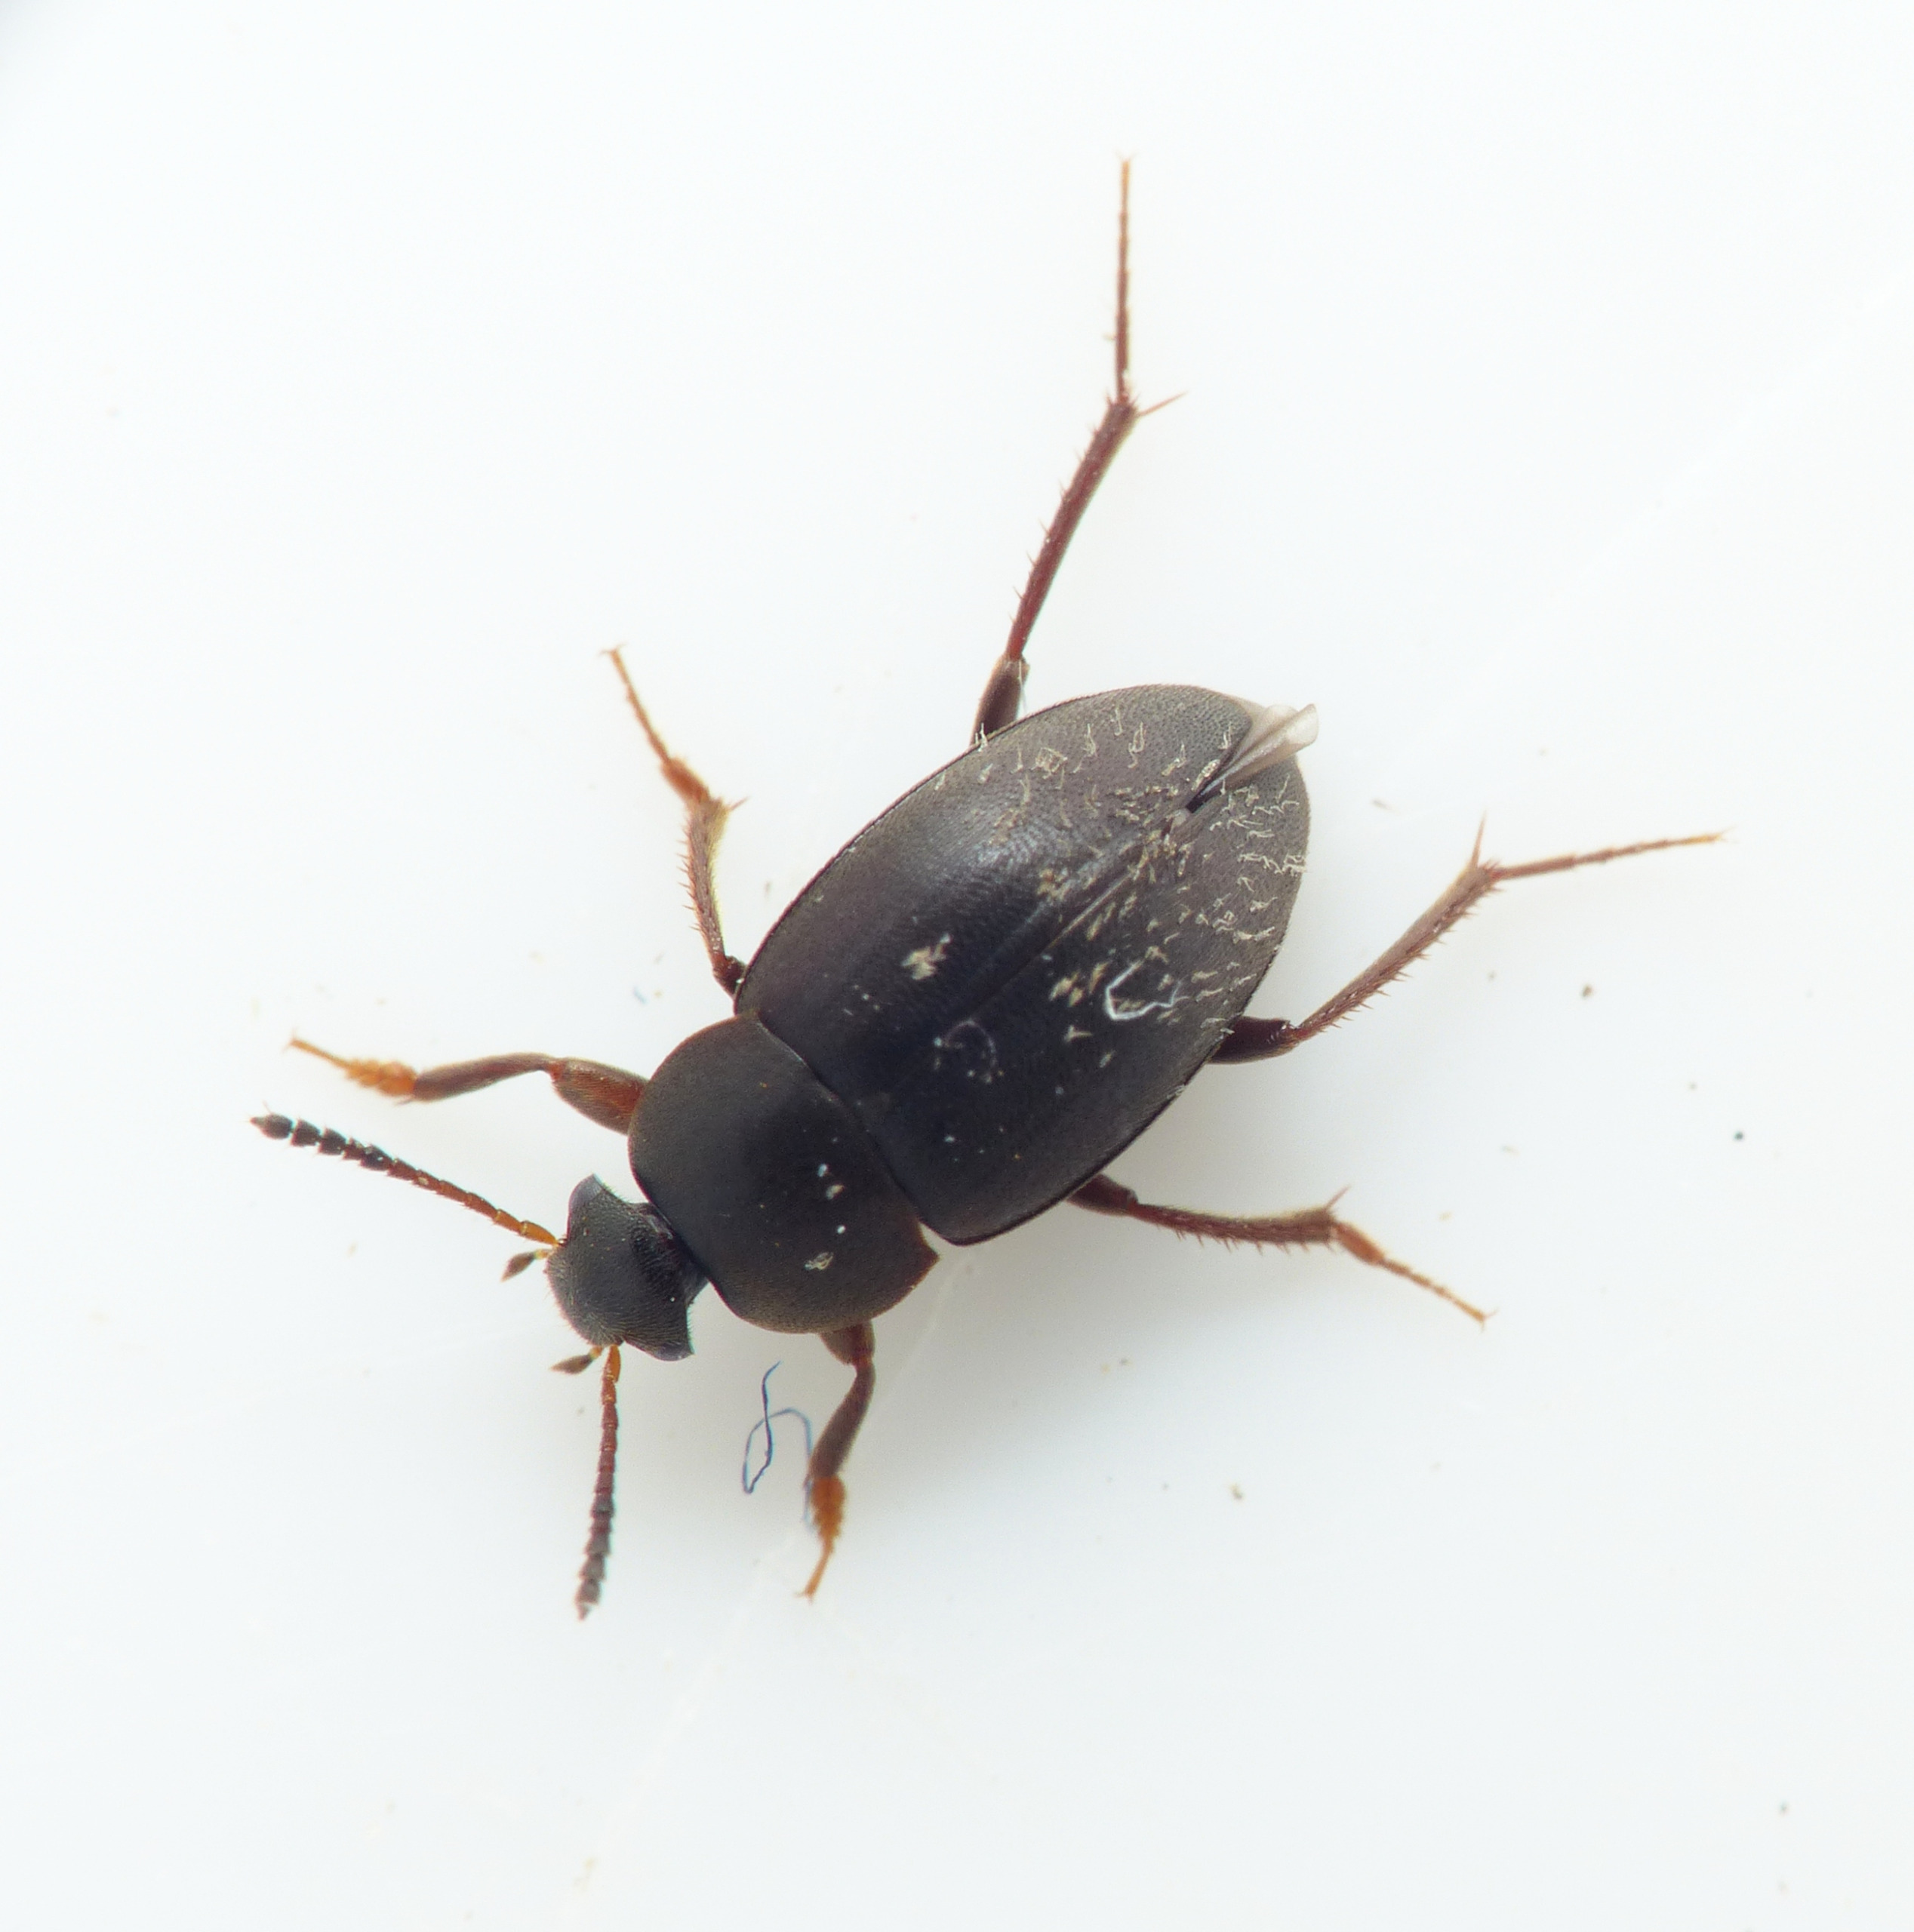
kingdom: Animalia
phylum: Arthropoda
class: Insecta
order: Coleoptera
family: Leiodidae
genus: Catops
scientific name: Catops fuliginosus
